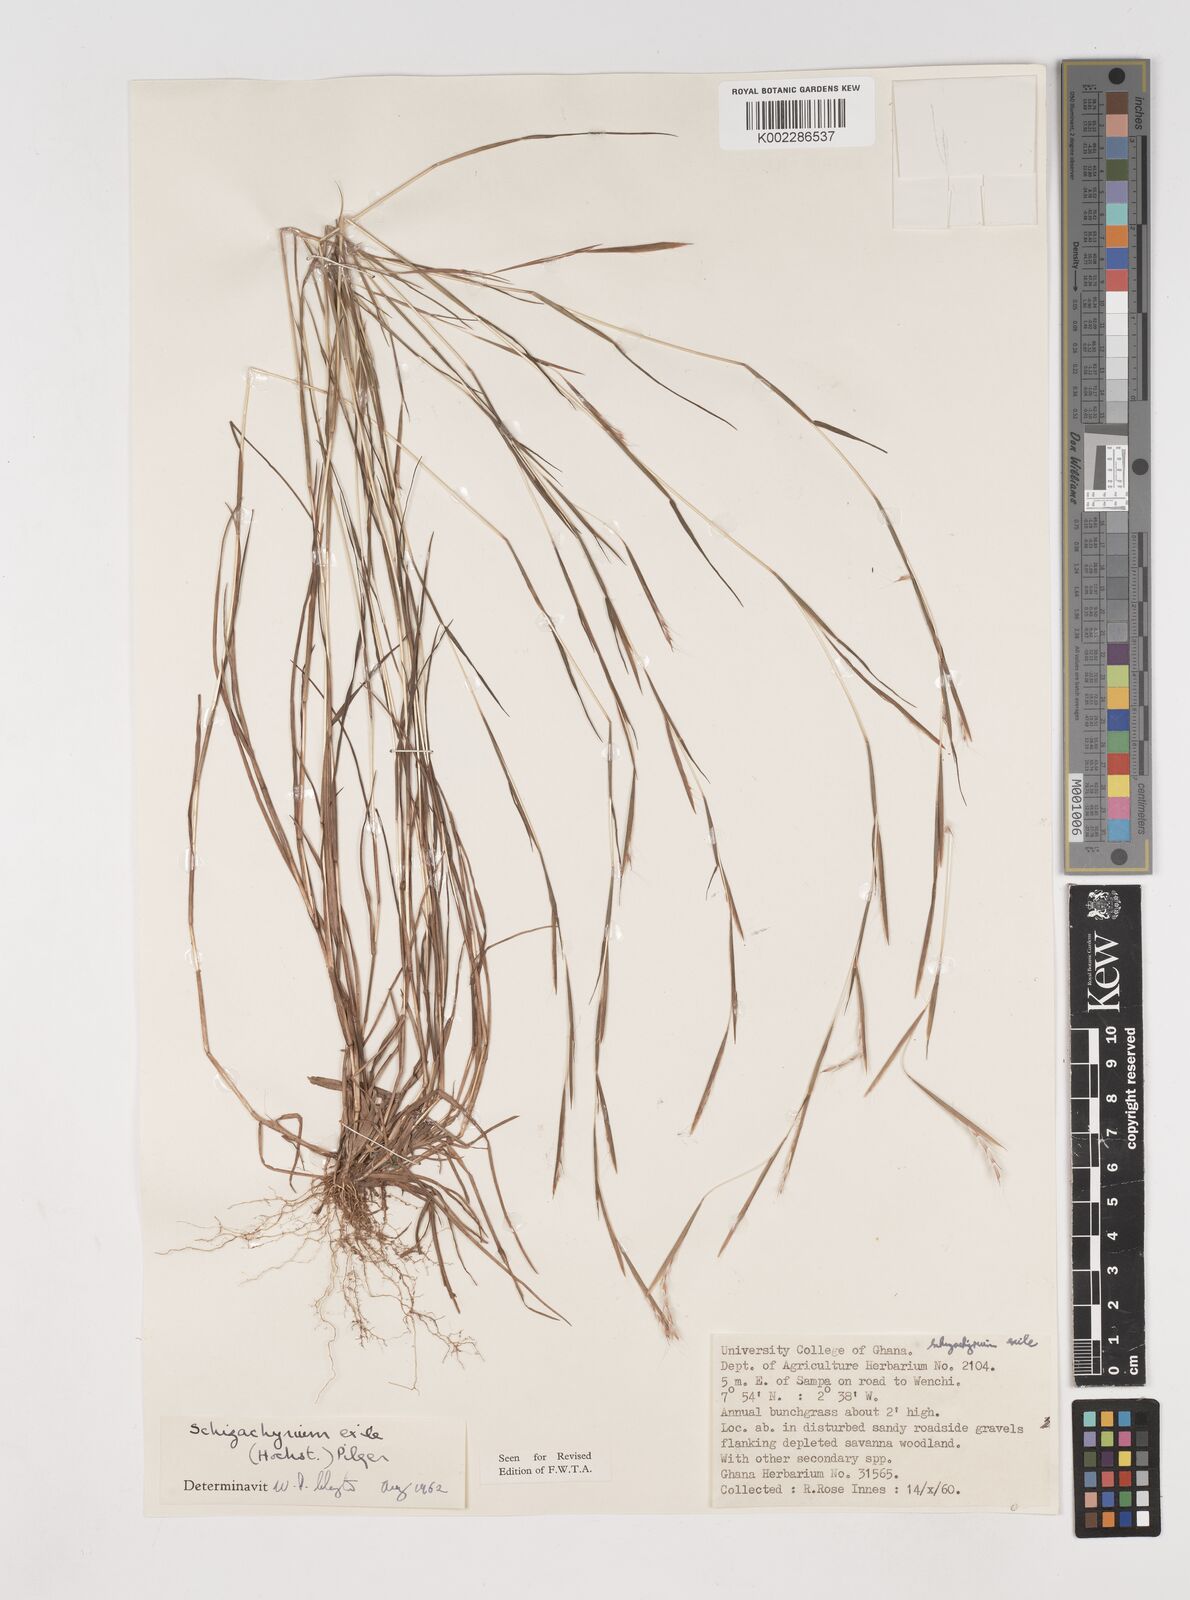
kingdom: Plantae
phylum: Tracheophyta
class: Liliopsida
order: Poales
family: Poaceae
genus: Schizachyrium
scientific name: Schizachyrium exile
